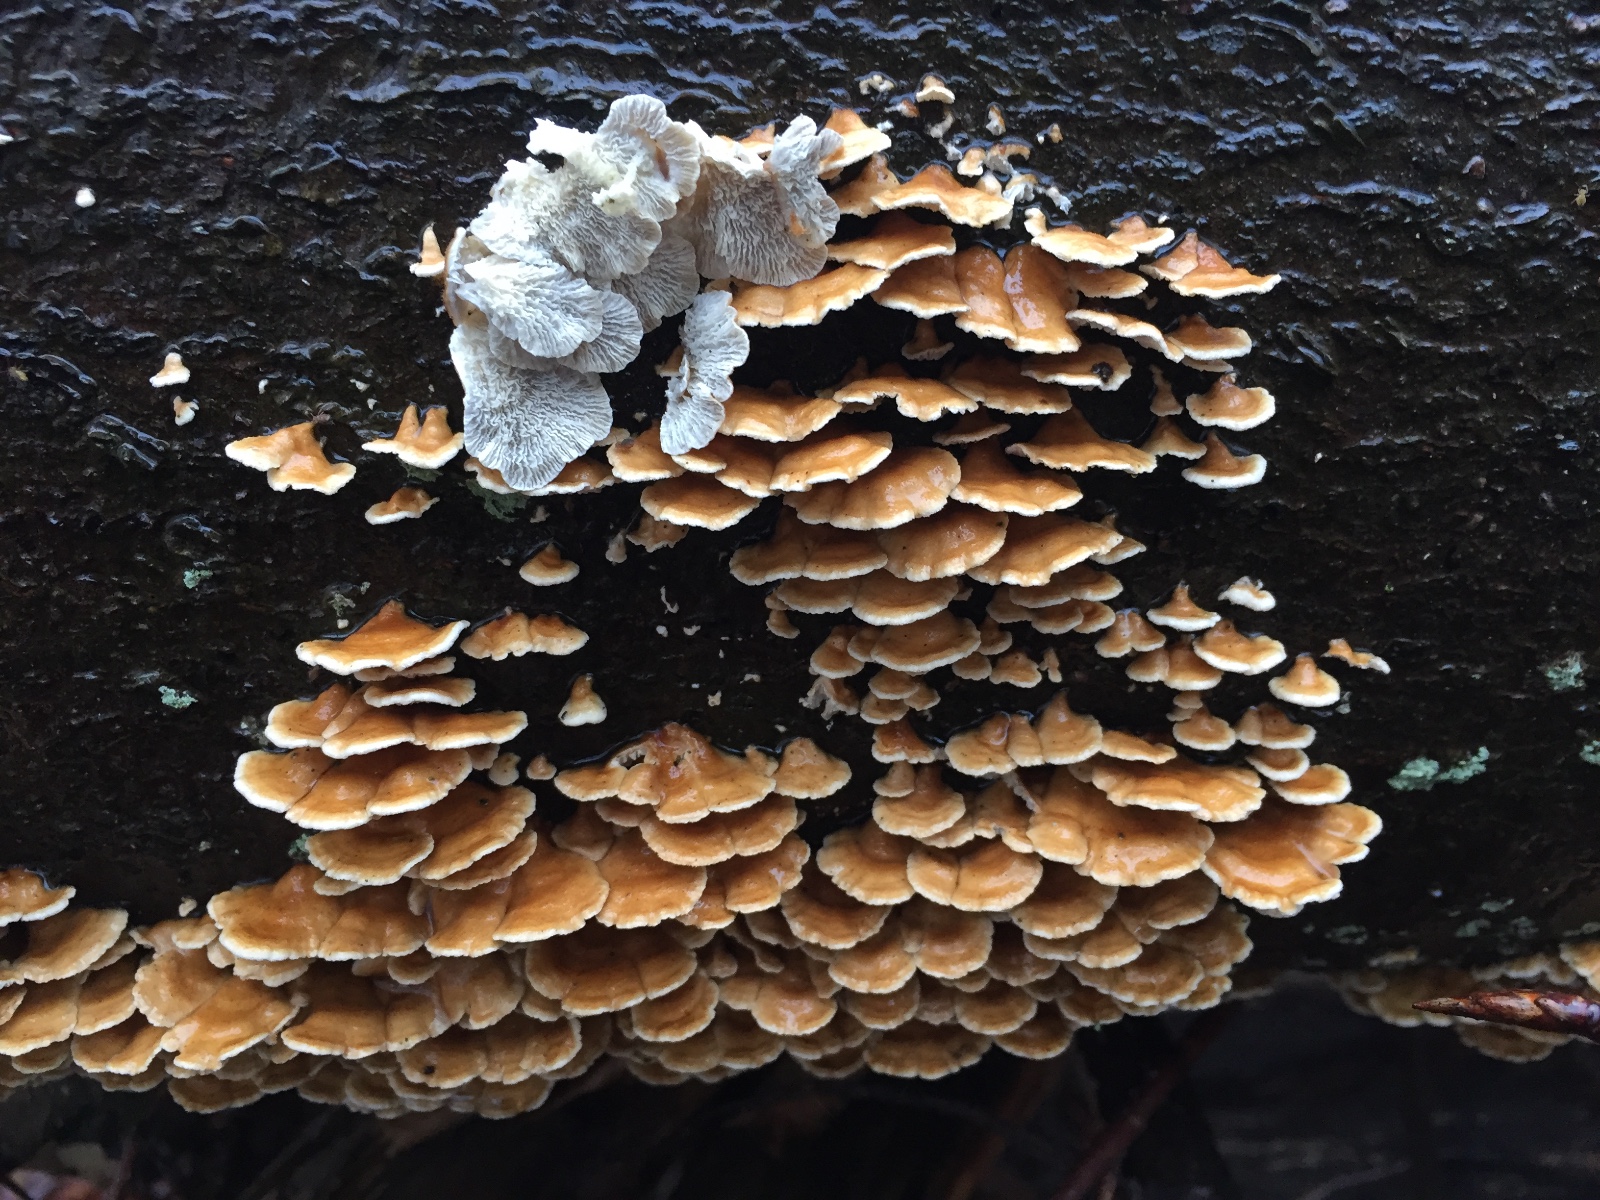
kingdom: Fungi
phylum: Basidiomycota
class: Agaricomycetes
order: Amylocorticiales
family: Amylocorticiaceae
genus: Plicaturopsis
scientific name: Plicaturopsis crispa
